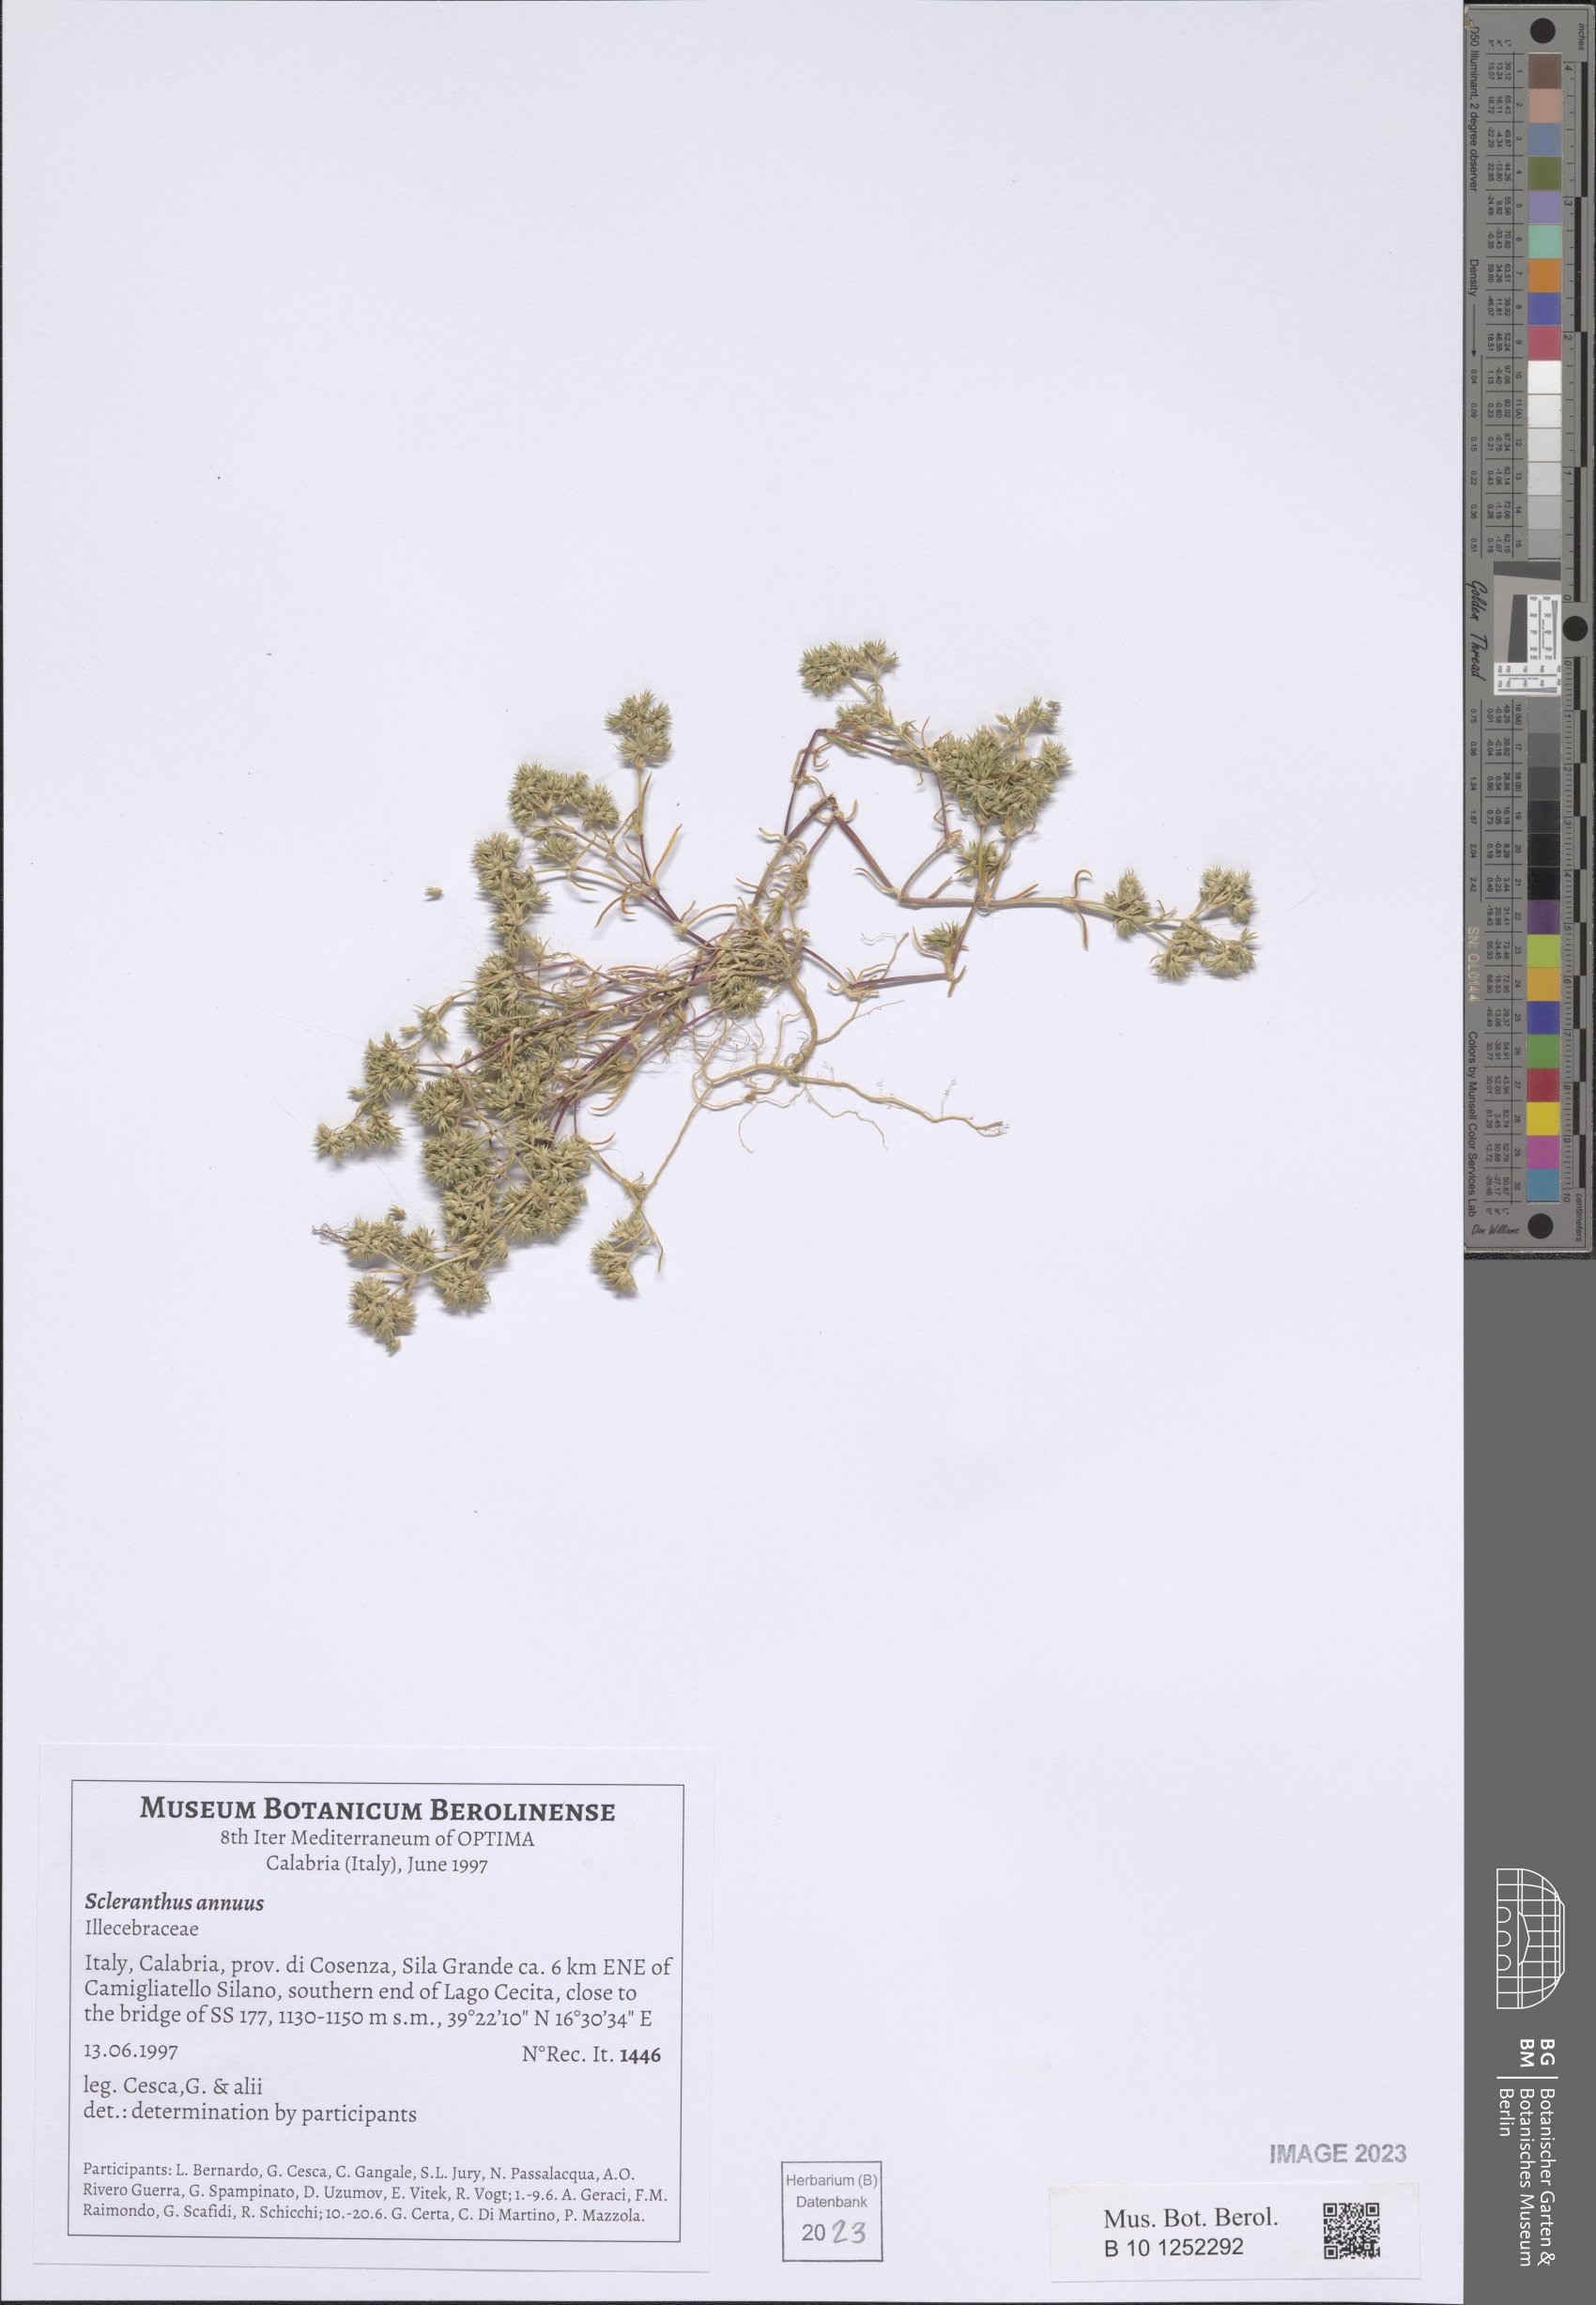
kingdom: Plantae
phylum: Tracheophyta
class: Magnoliopsida
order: Caryophyllales
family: Caryophyllaceae
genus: Scleranthus
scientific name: Scleranthus annuus
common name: Annual knawel
